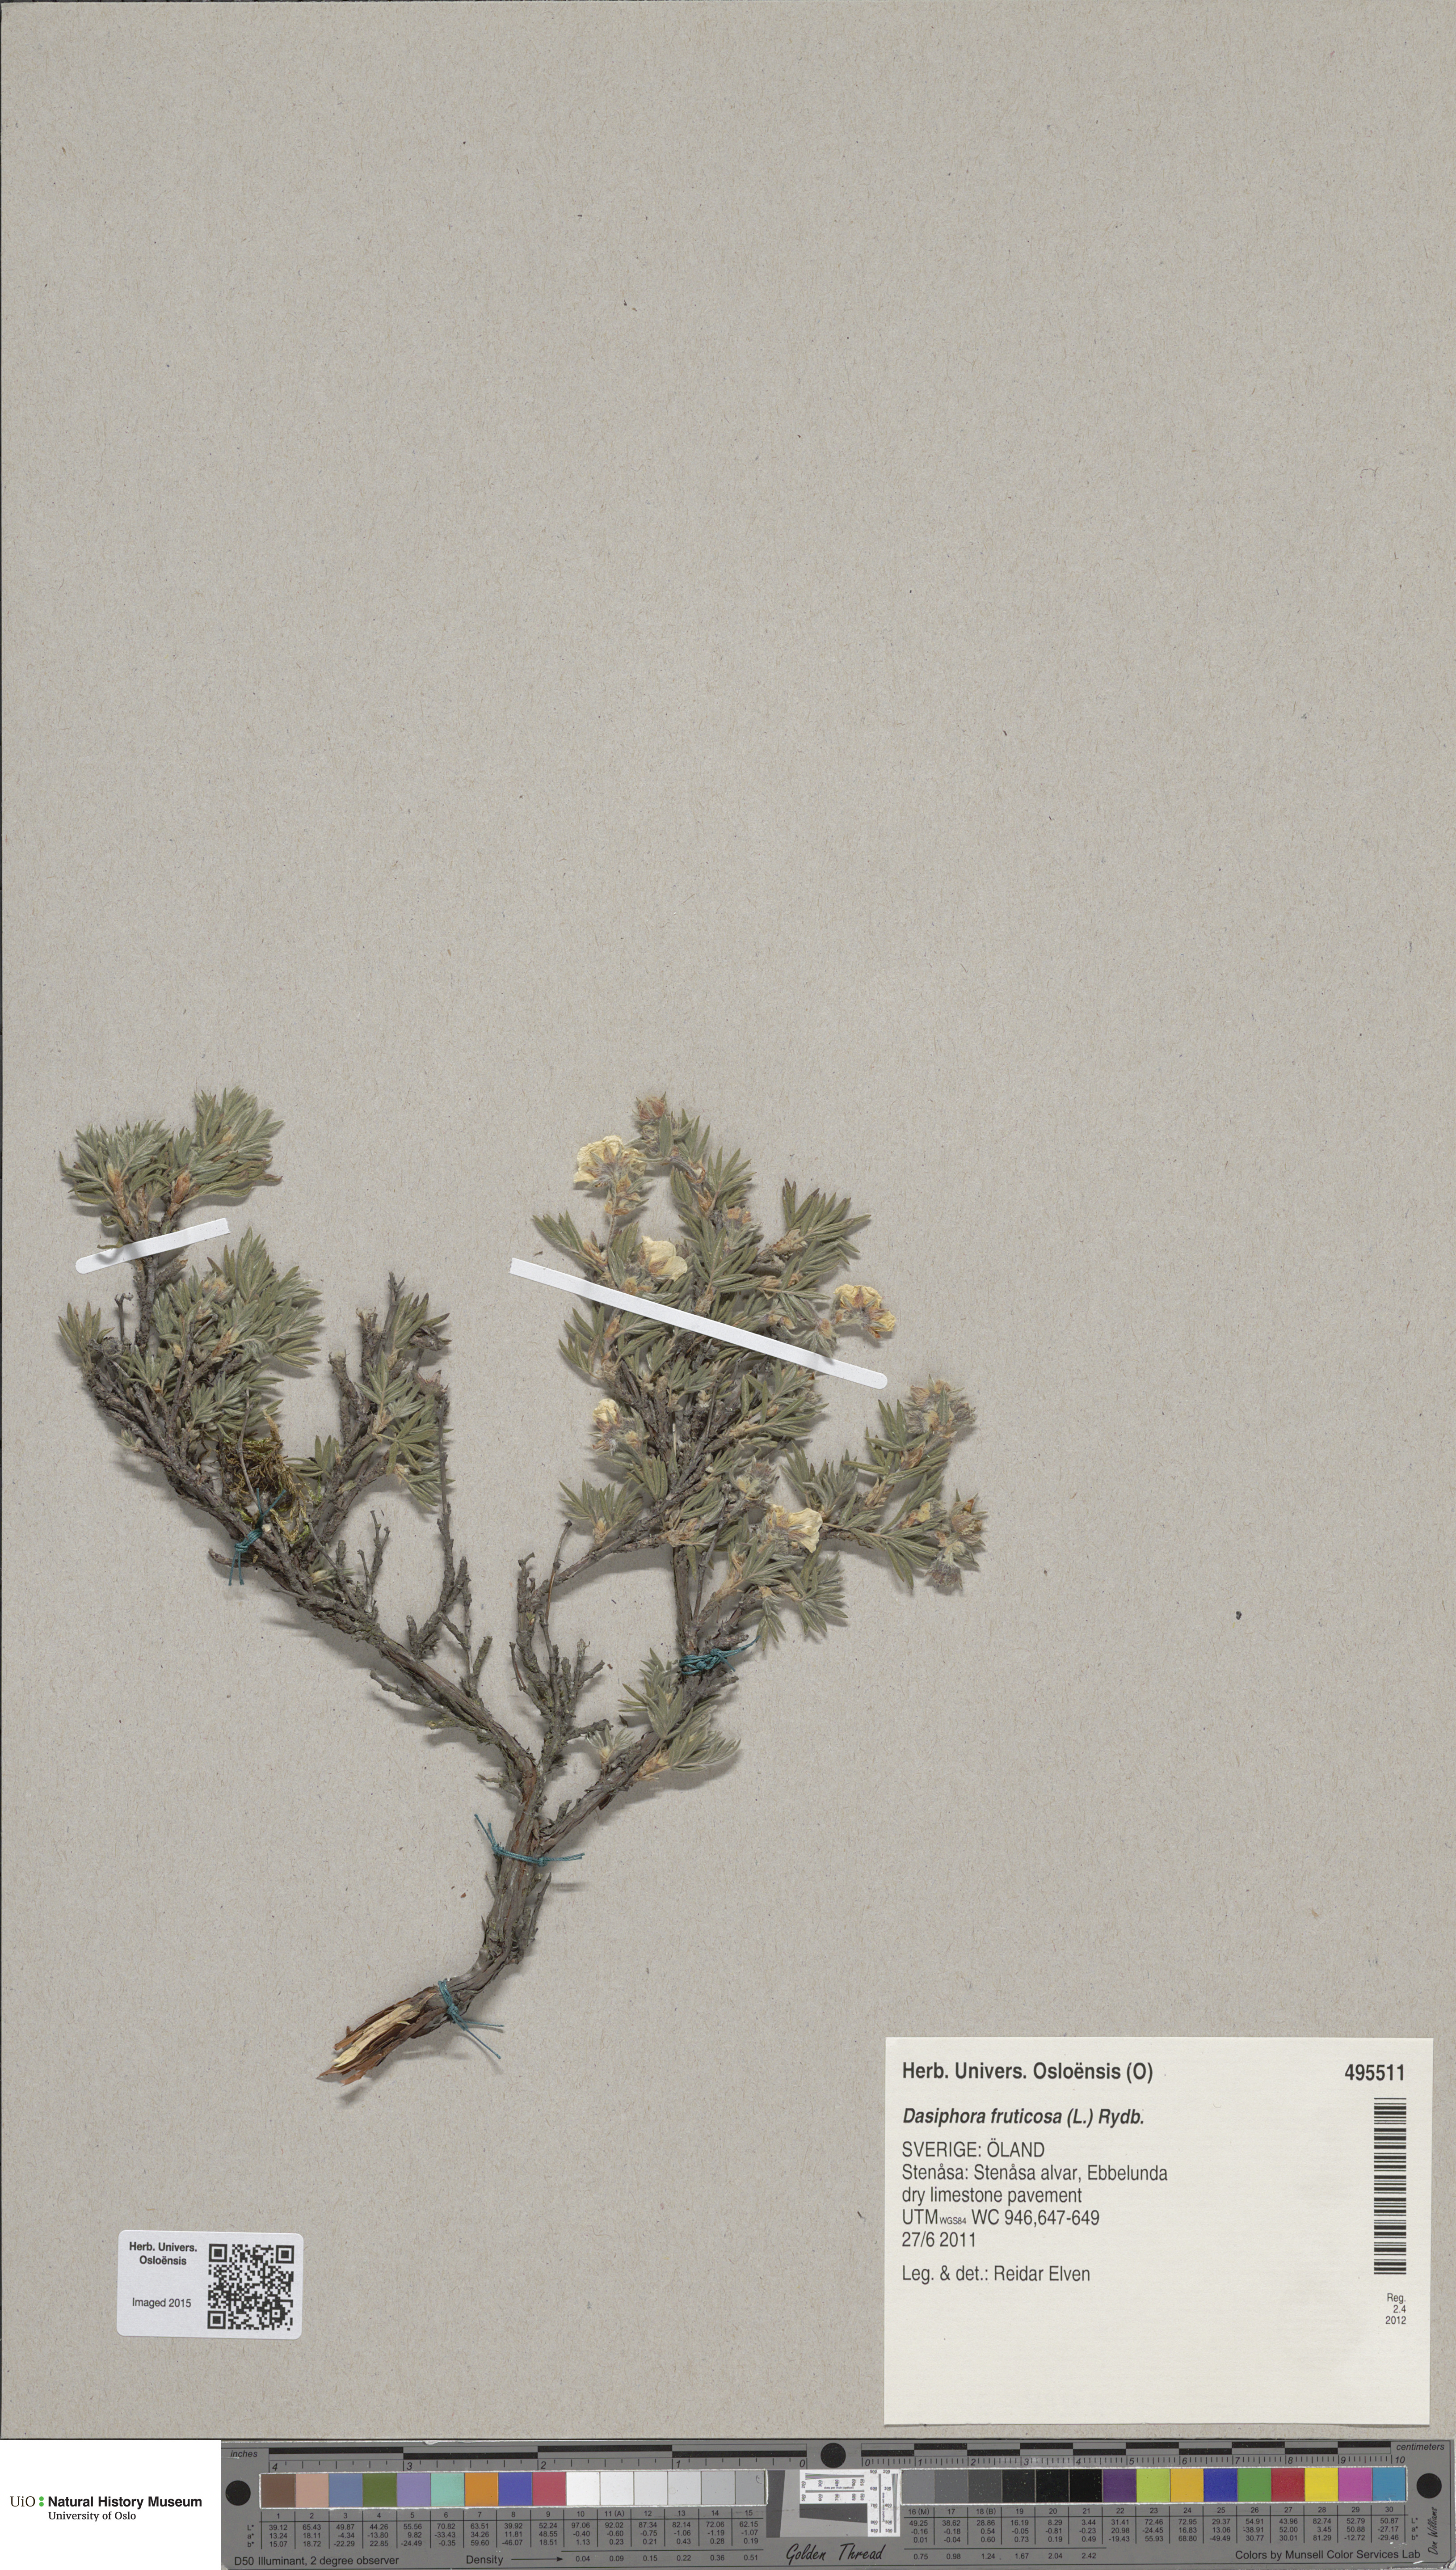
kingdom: Plantae
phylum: Tracheophyta
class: Magnoliopsida
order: Rosales
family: Rosaceae
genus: Dasiphora
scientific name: Dasiphora fruticosa
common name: Shrubby cinquefoil
